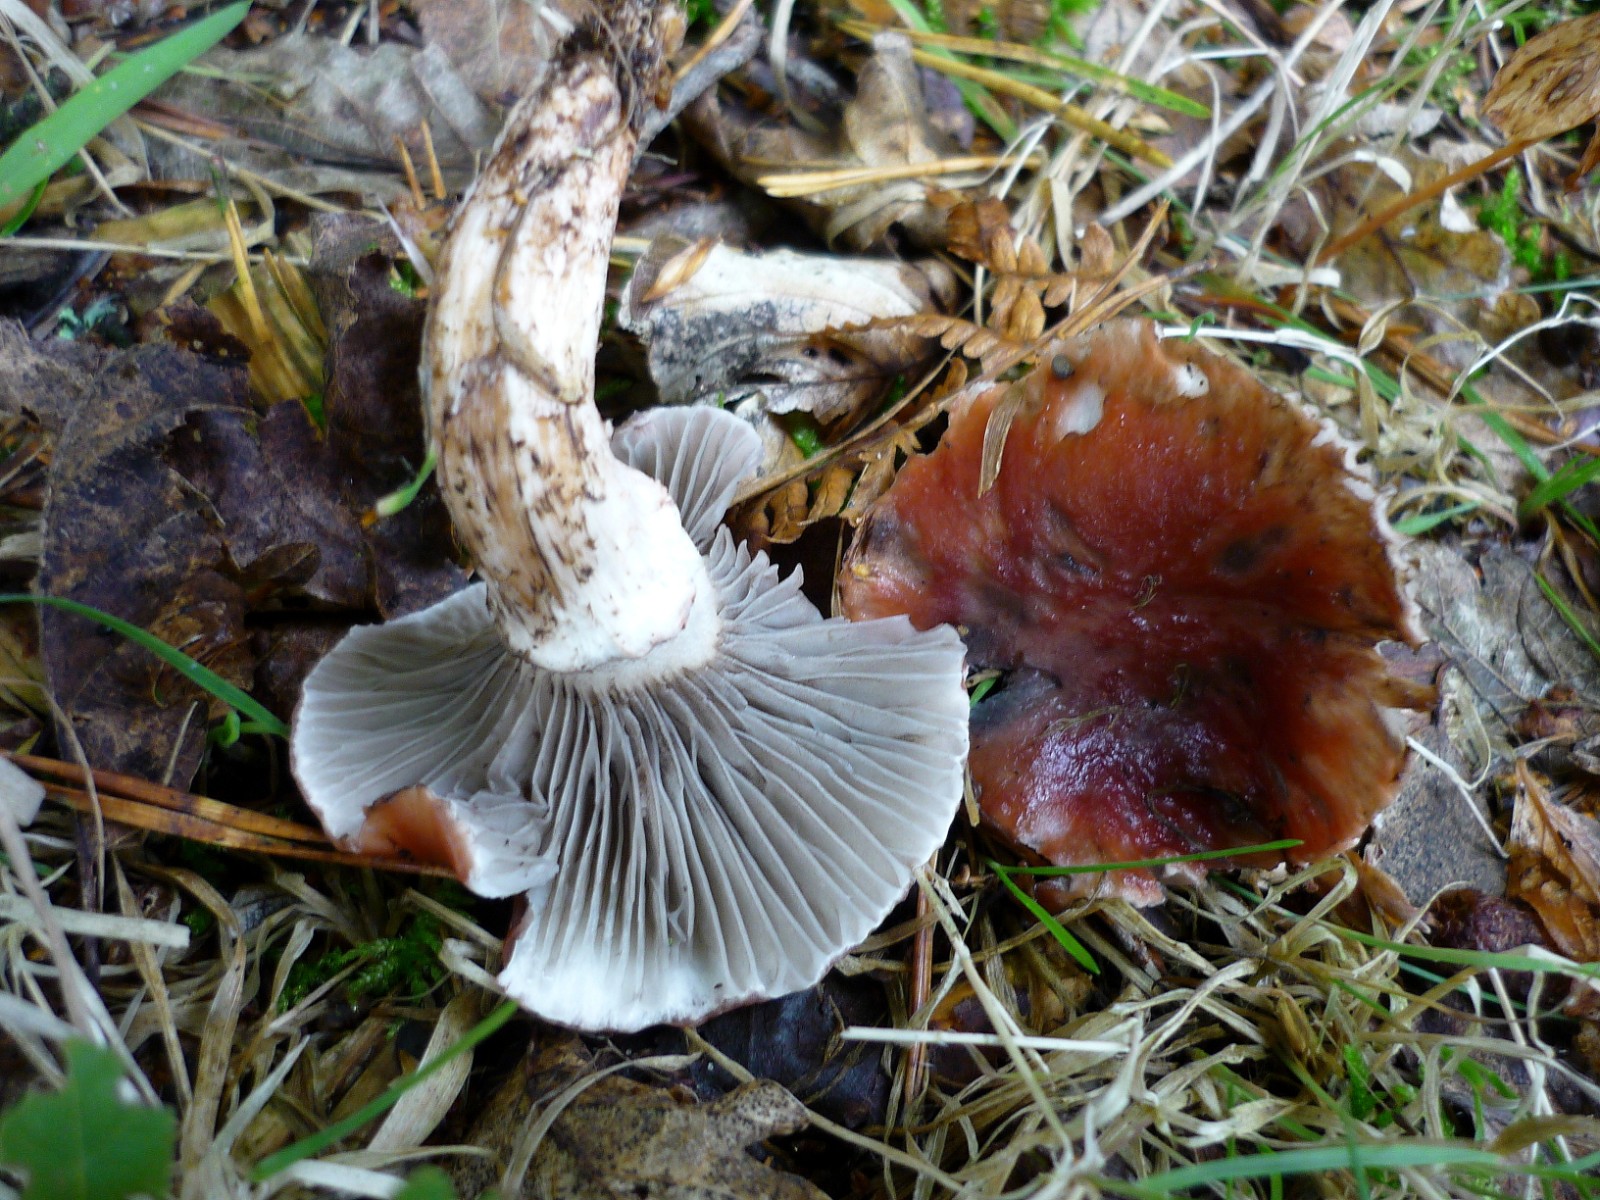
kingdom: Fungi
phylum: Basidiomycota
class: Agaricomycetes
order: Boletales
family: Gomphidiaceae
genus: Gomphidius
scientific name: Gomphidius roseus
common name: rosenrød slimslør
